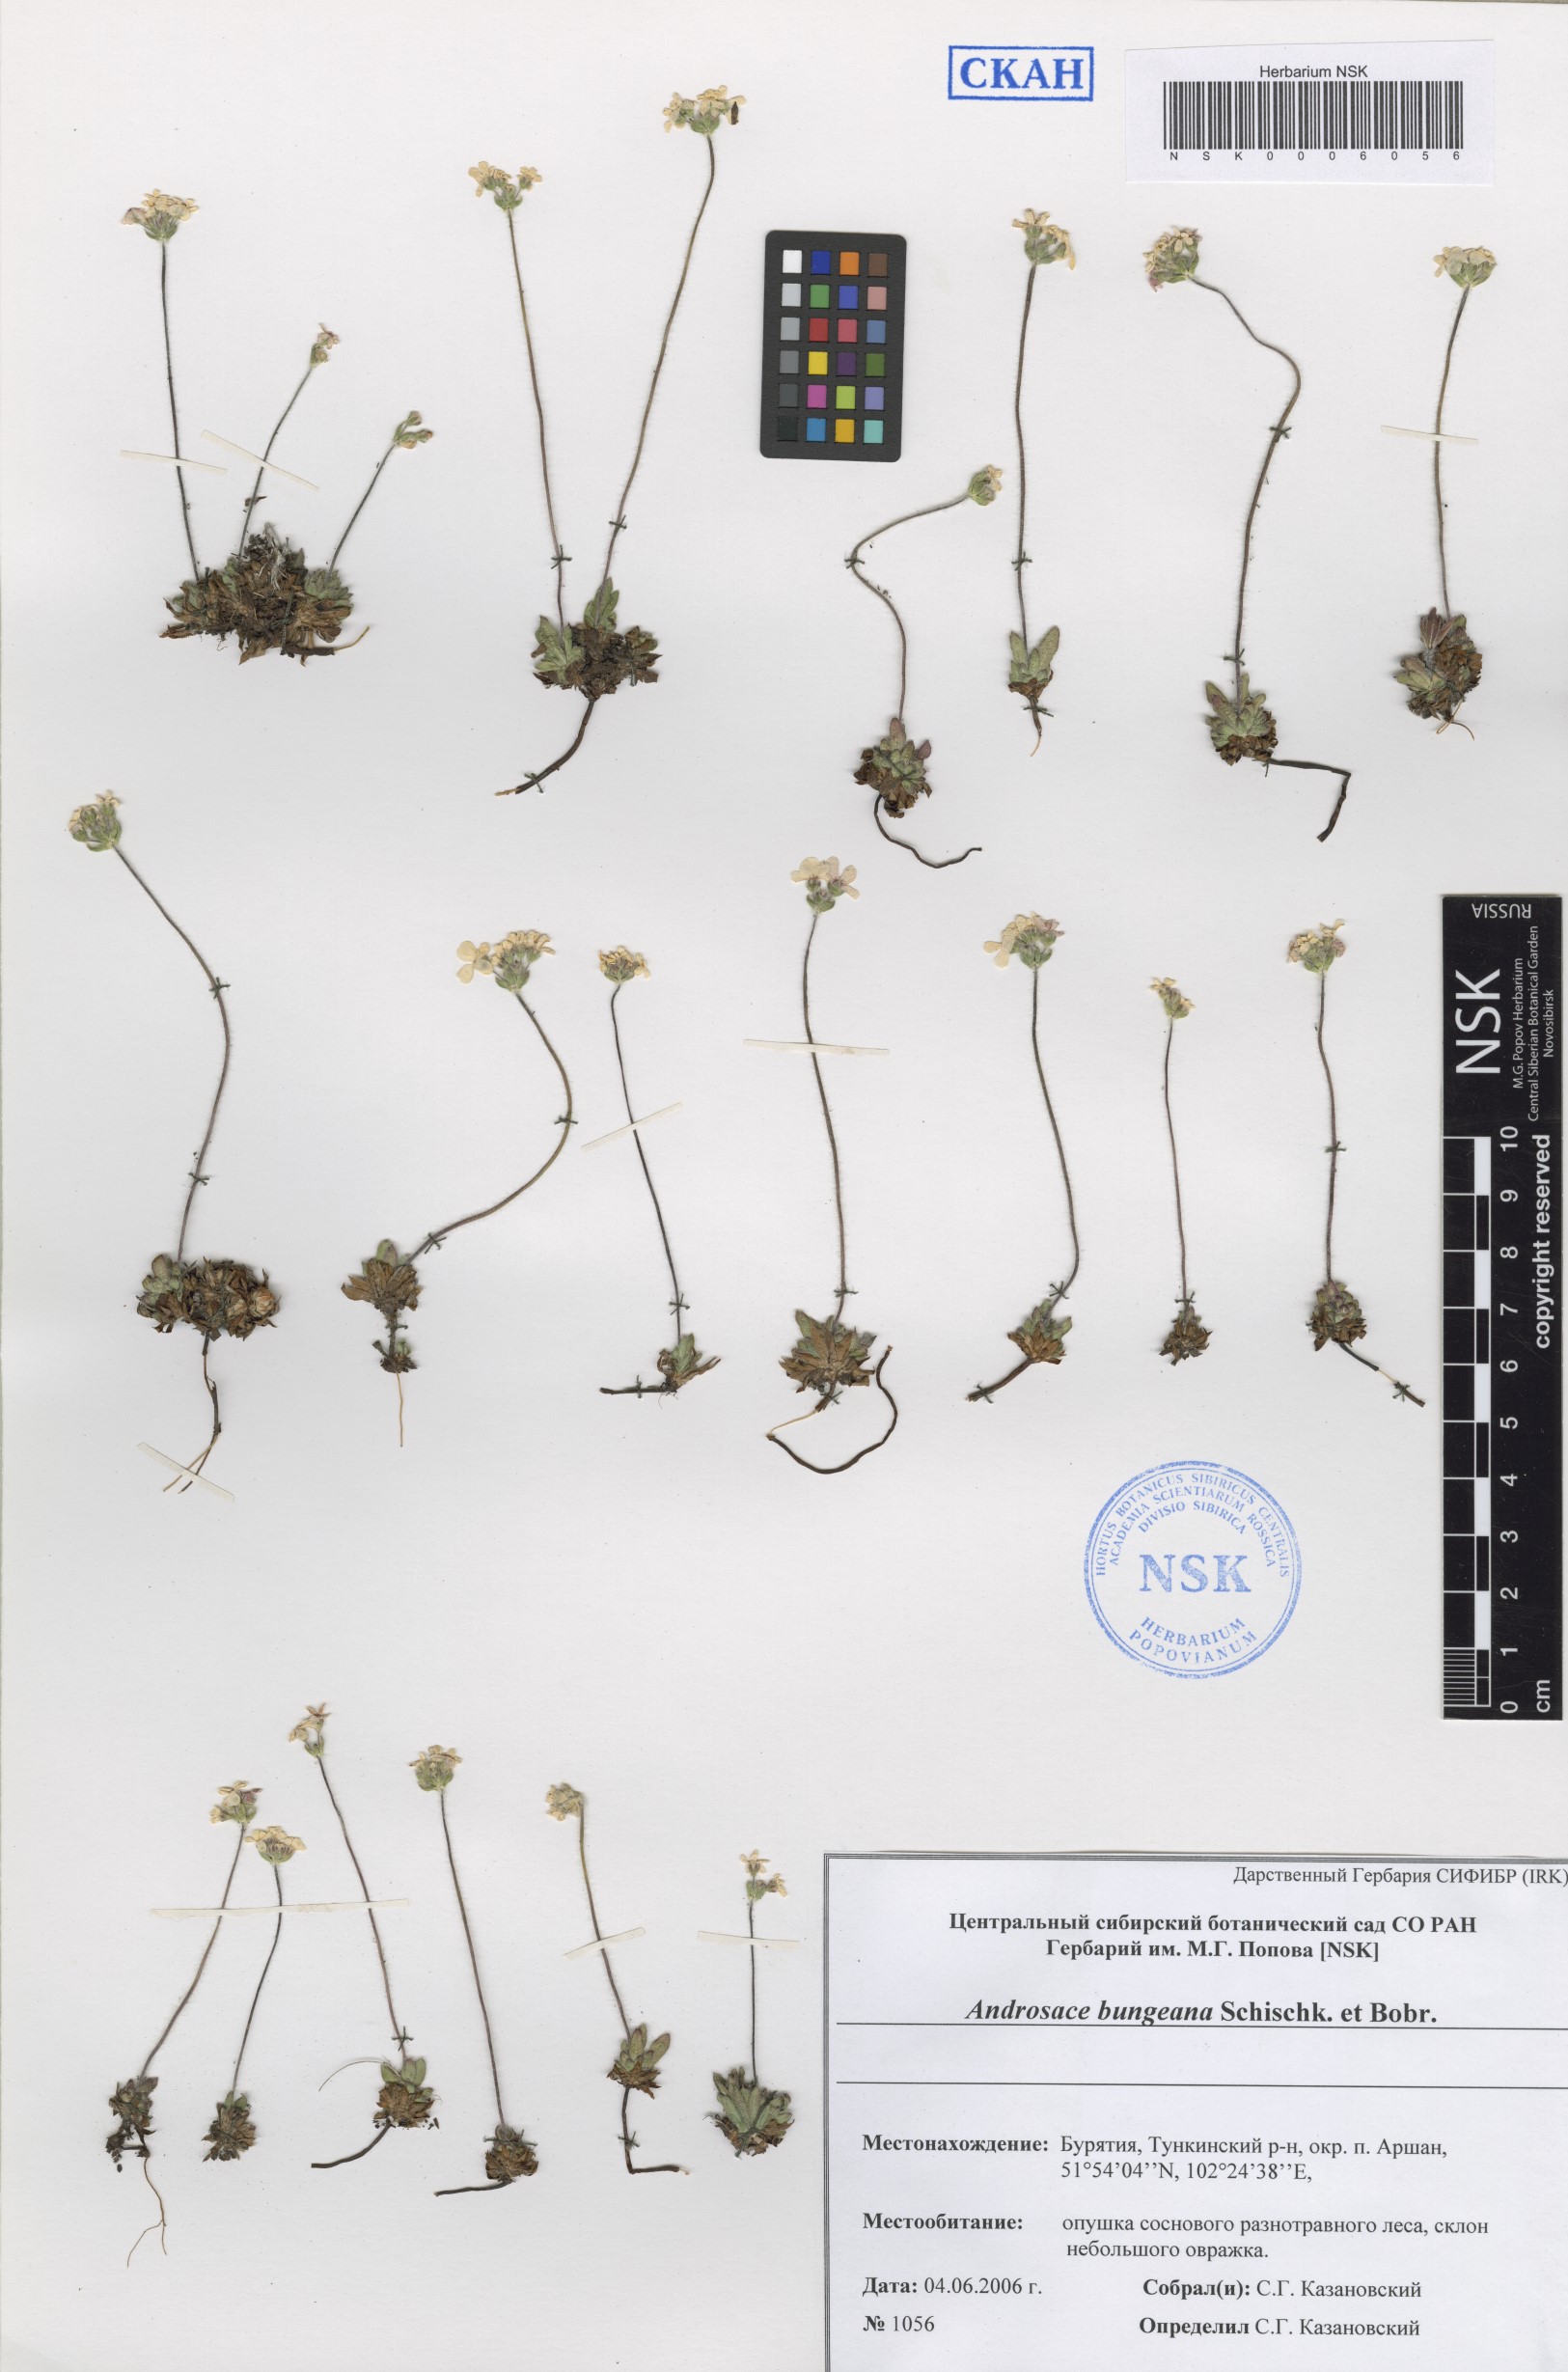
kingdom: Plantae
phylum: Tracheophyta
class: Magnoliopsida
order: Ericales
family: Primulaceae
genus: Androsace
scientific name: Androsace bungeana
